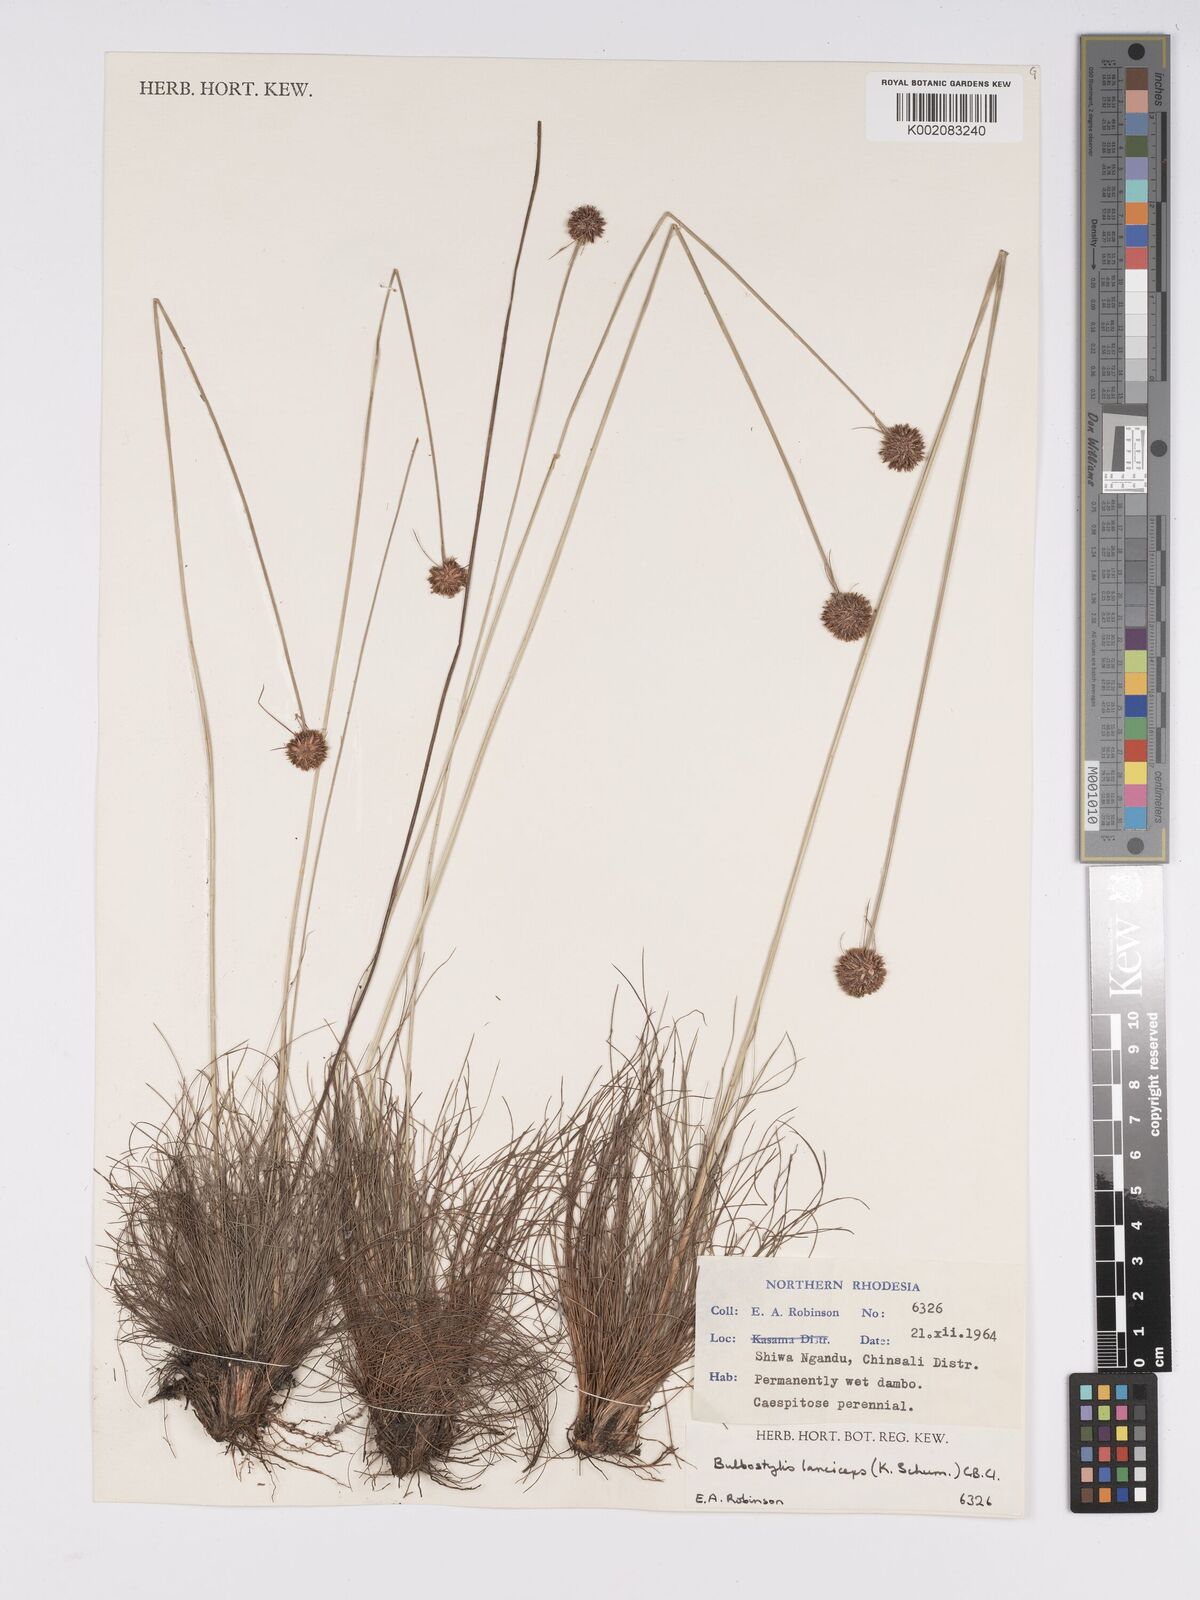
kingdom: Plantae
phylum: Tracheophyta
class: Liliopsida
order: Poales
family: Cyperaceae
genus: Bulbostylis
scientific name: Bulbostylis laniceps
